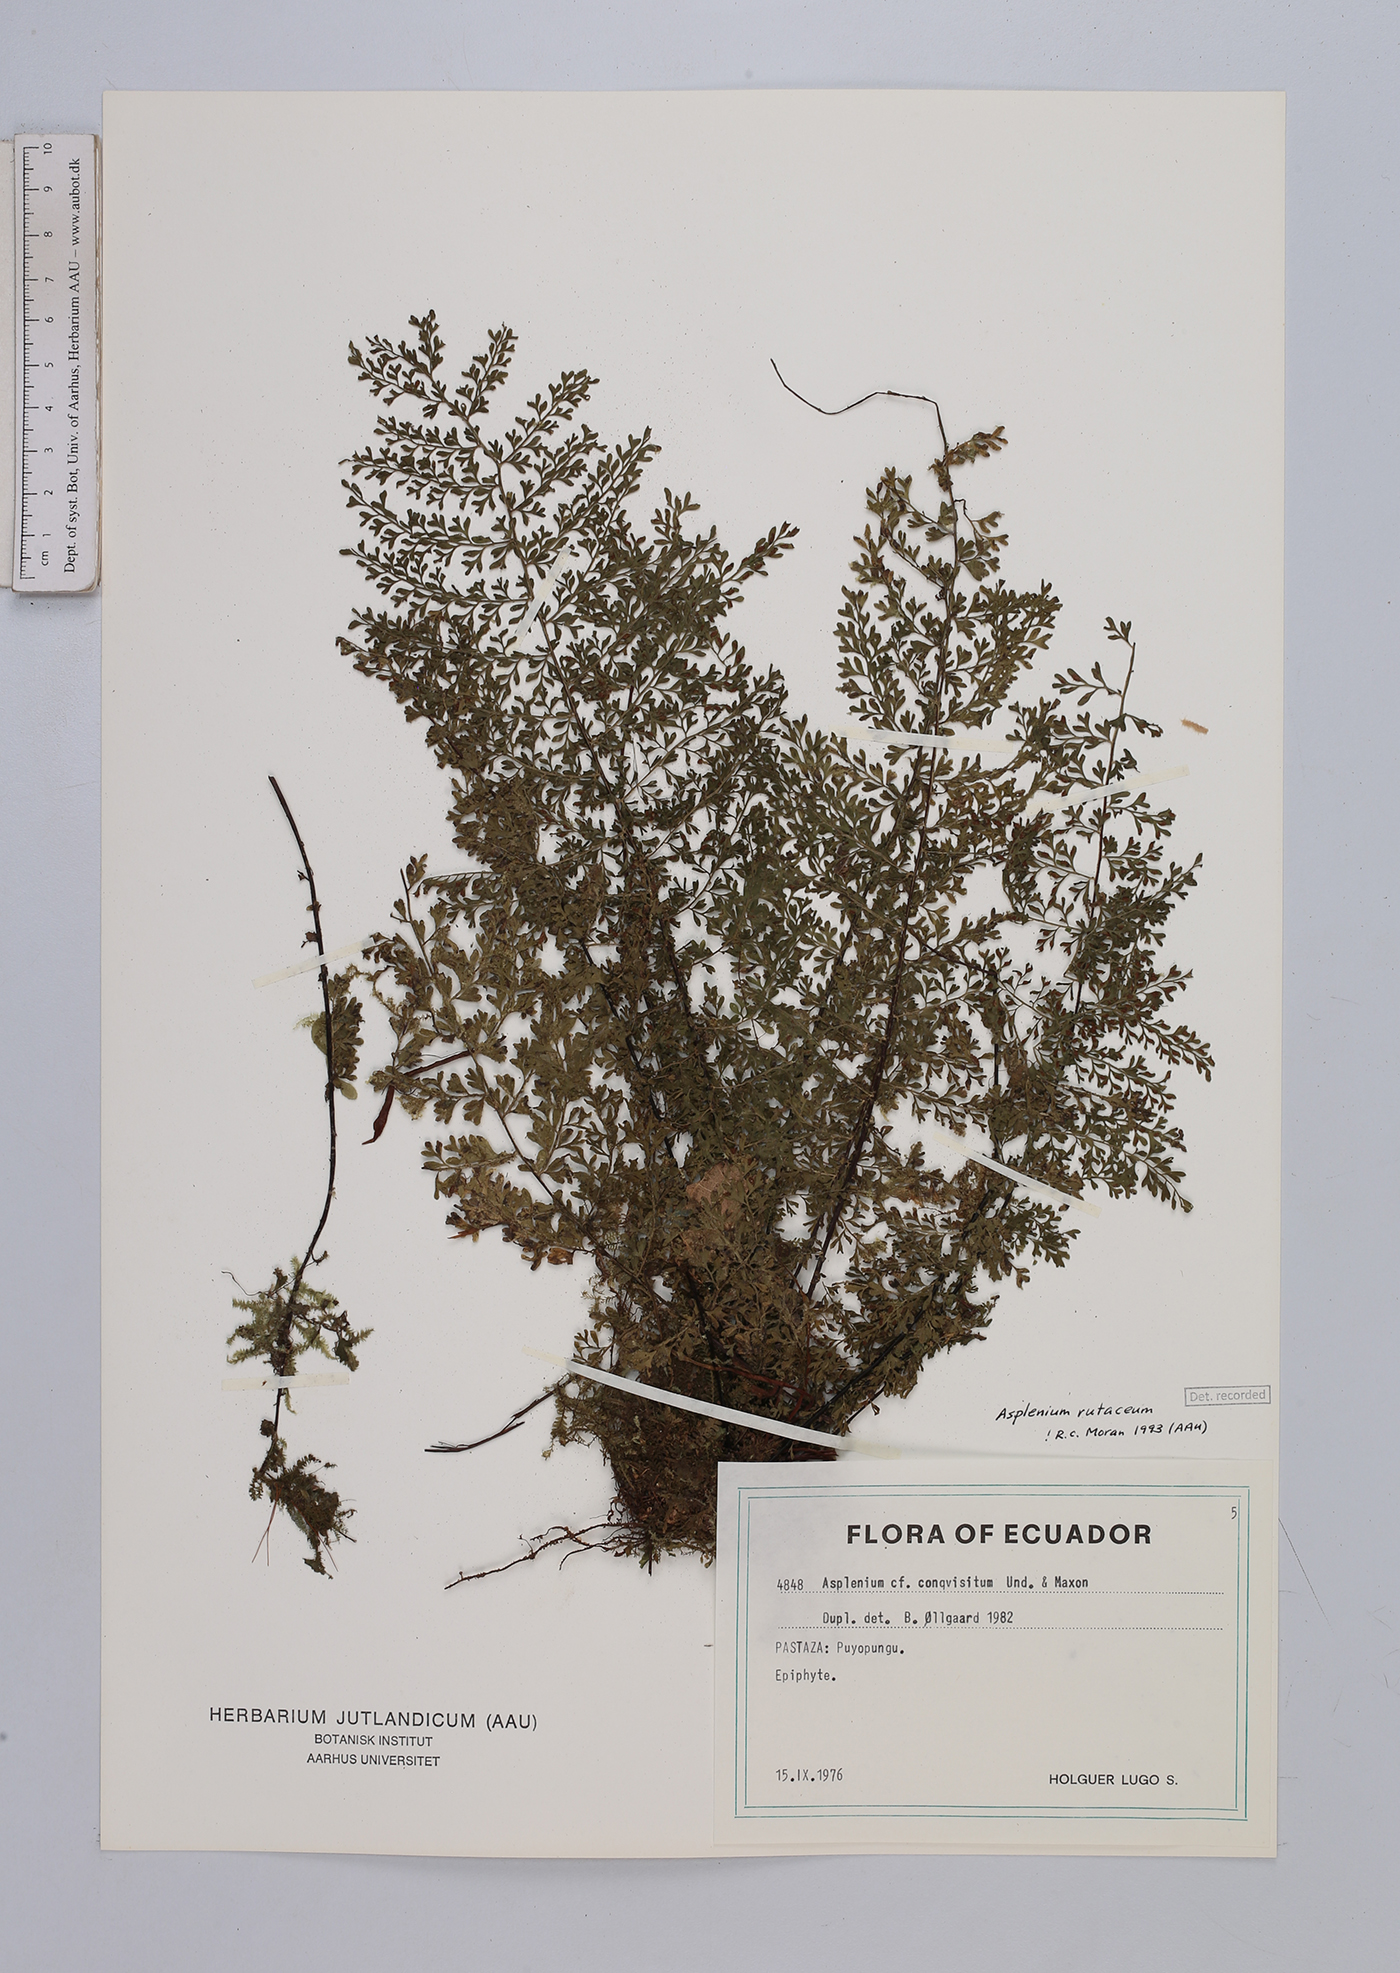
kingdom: Plantae
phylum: Tracheophyta
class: Polypodiopsida
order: Polypodiales
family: Aspleniaceae
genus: Asplenium
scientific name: Asplenium rutaceum
